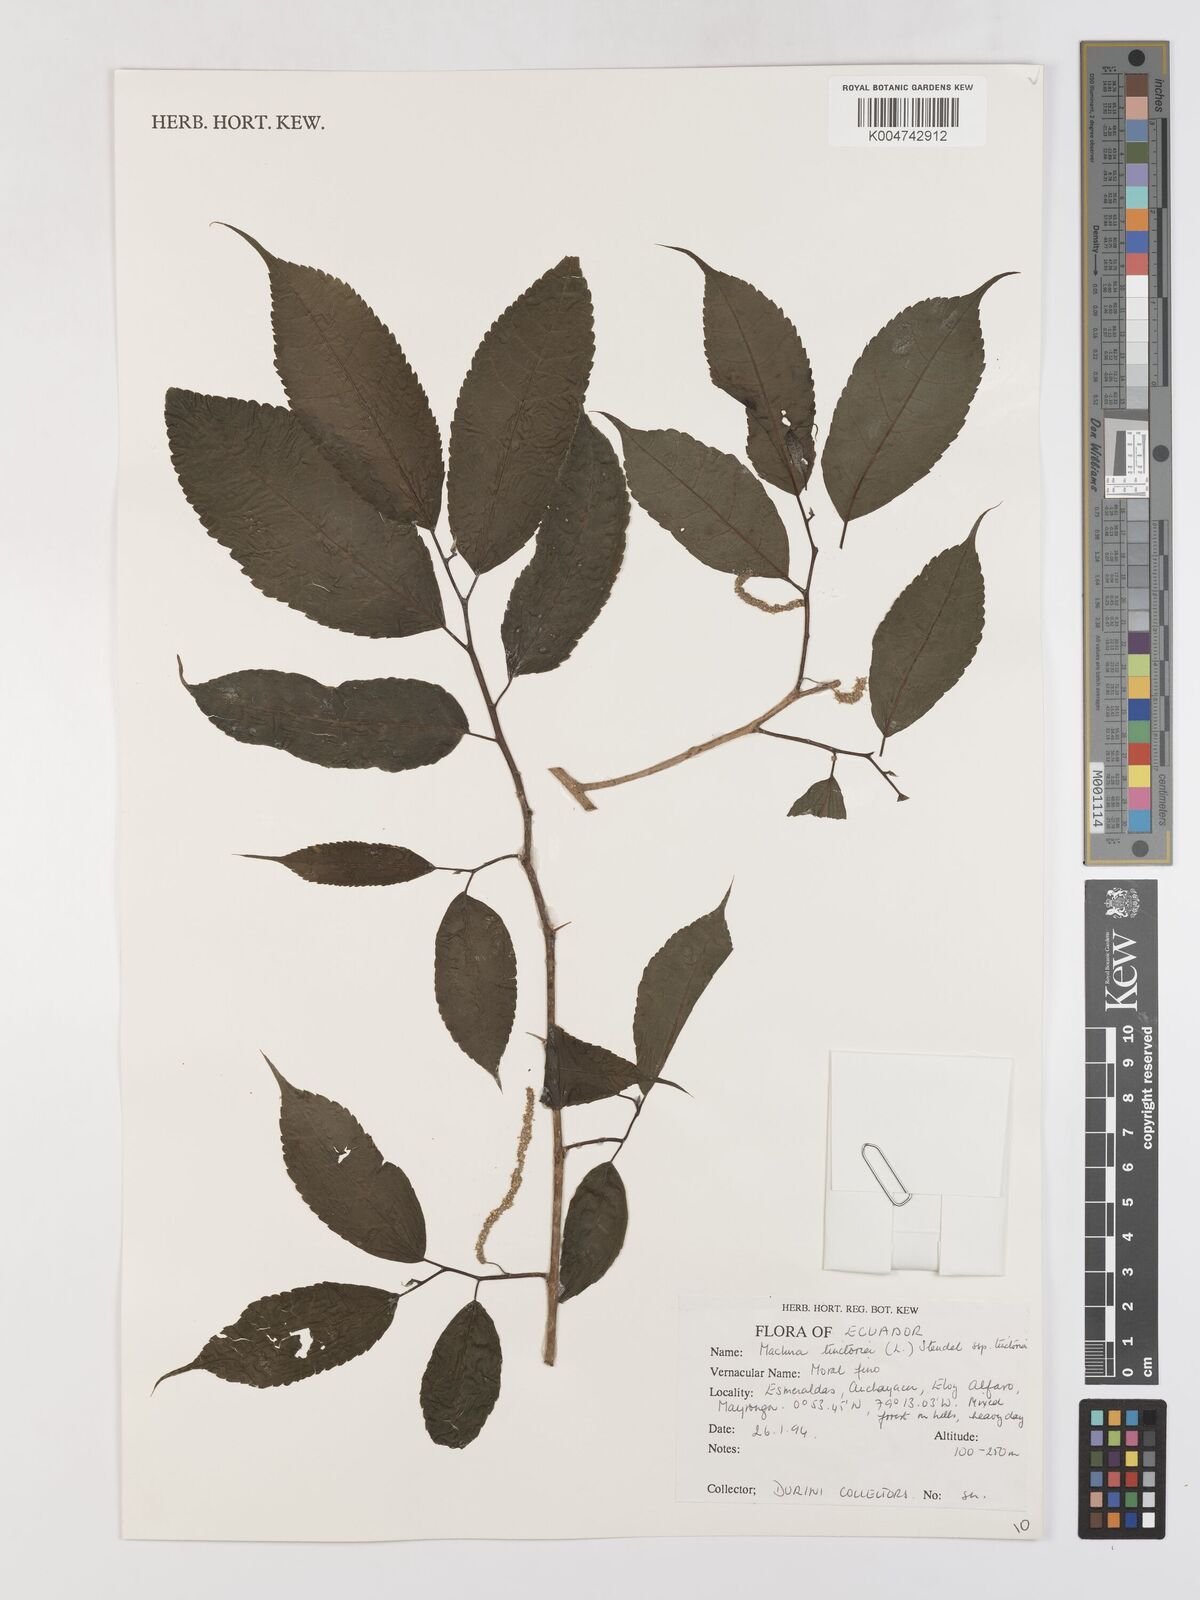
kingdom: Plantae
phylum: Tracheophyta
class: Magnoliopsida
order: Rosales
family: Moraceae
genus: Maclura
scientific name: Maclura tinctoria
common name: Old fustic
